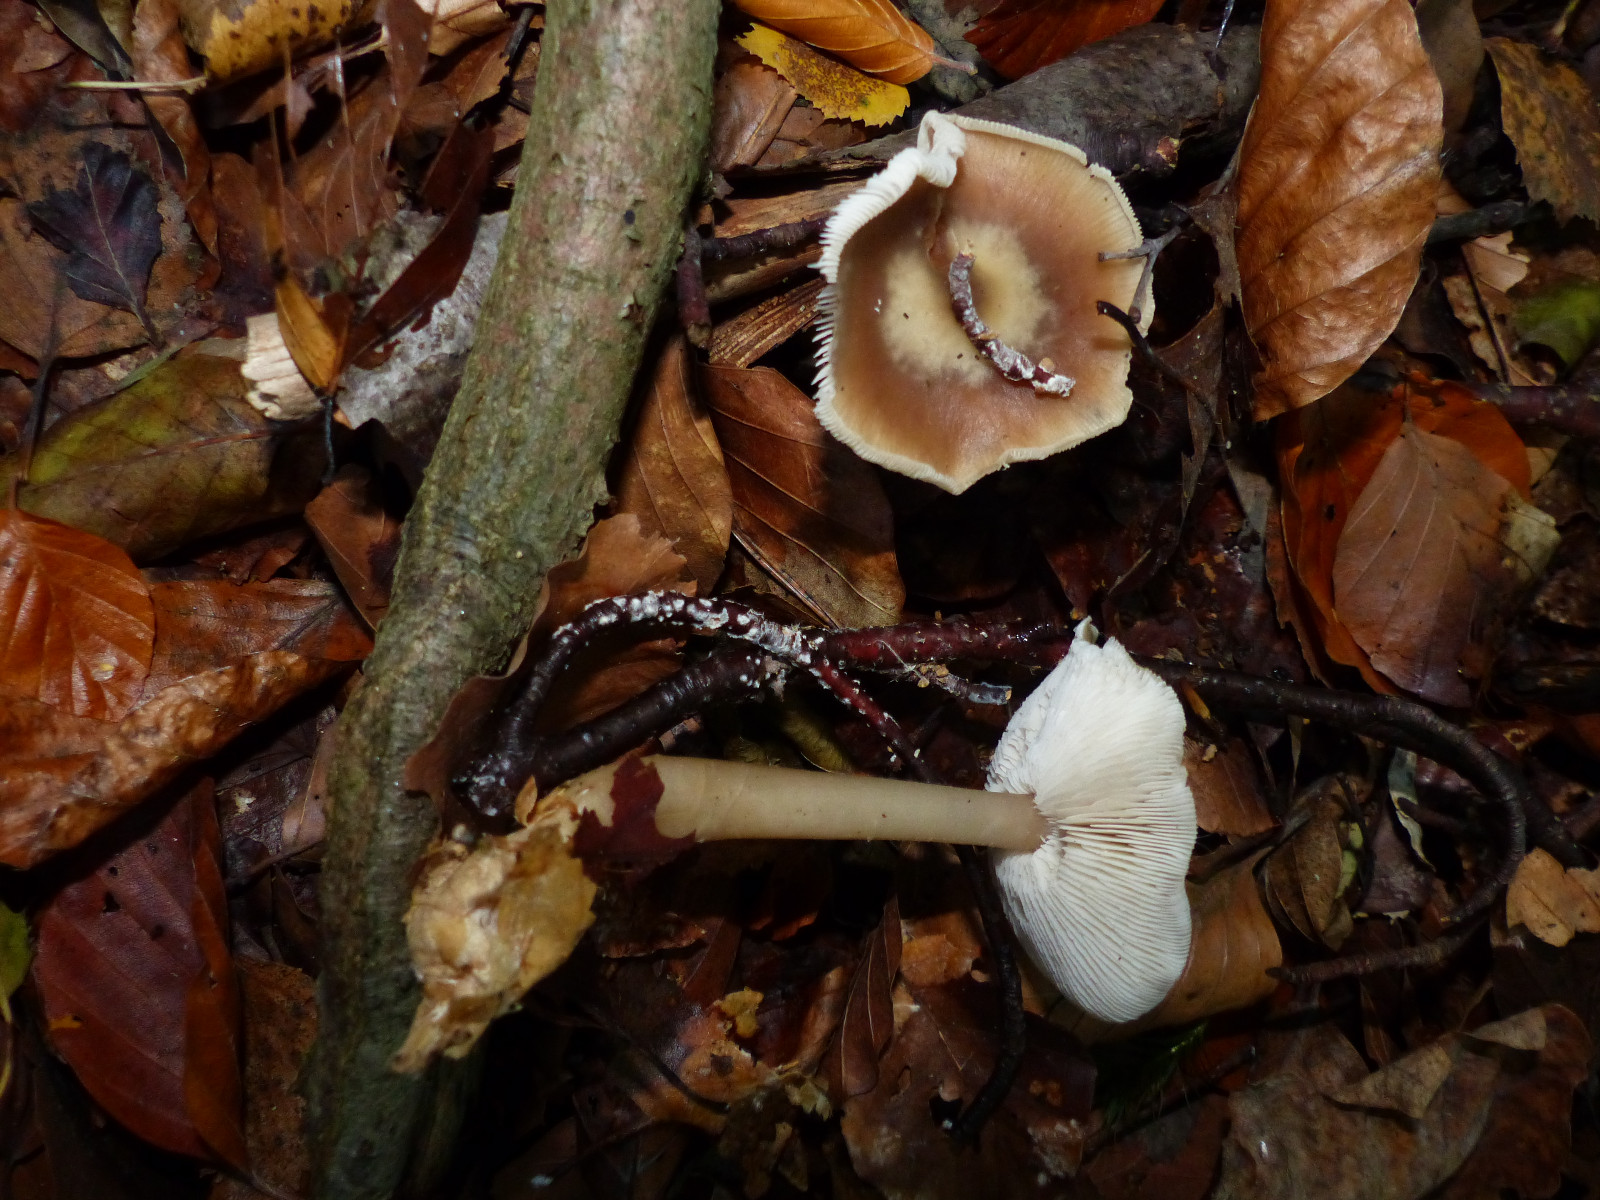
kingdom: Fungi
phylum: Basidiomycota
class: Agaricomycetes
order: Agaricales
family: Omphalotaceae
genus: Rhodocollybia
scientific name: Rhodocollybia asema
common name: horngrå fladhat
